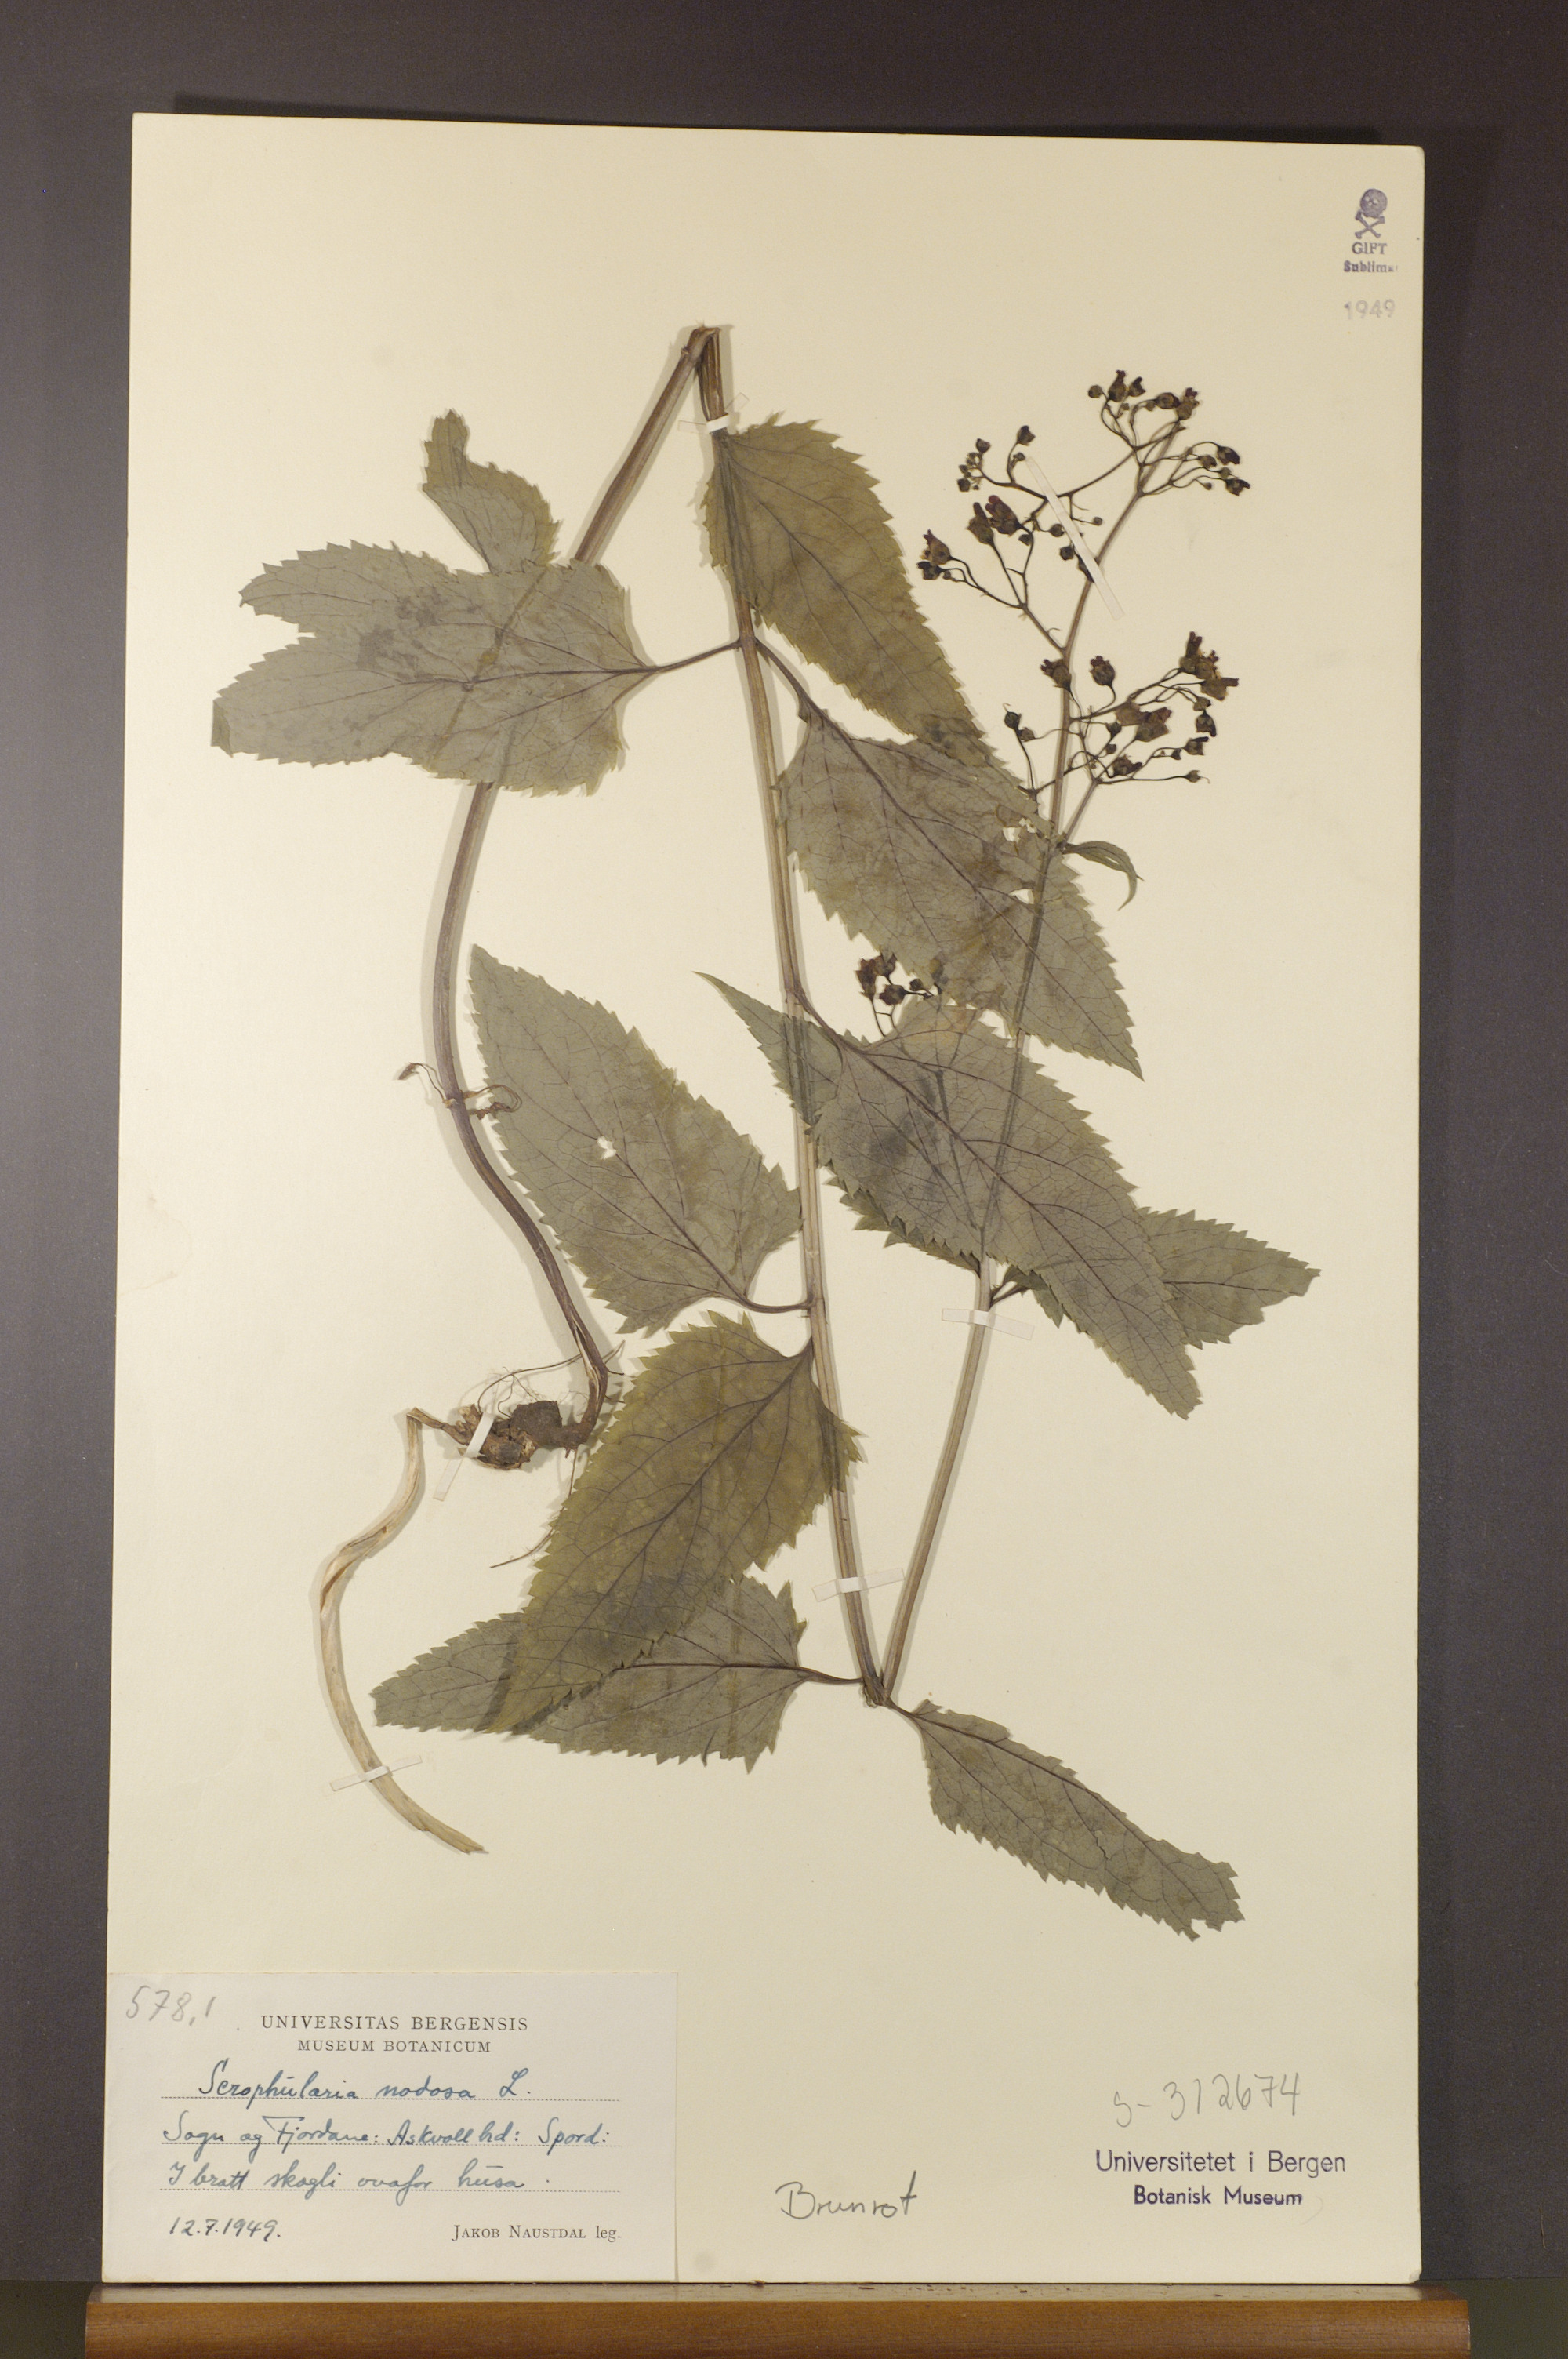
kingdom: Plantae
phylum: Tracheophyta
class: Magnoliopsida
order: Lamiales
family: Scrophulariaceae
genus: Scrophularia
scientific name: Scrophularia nodosa
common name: Common figwort
